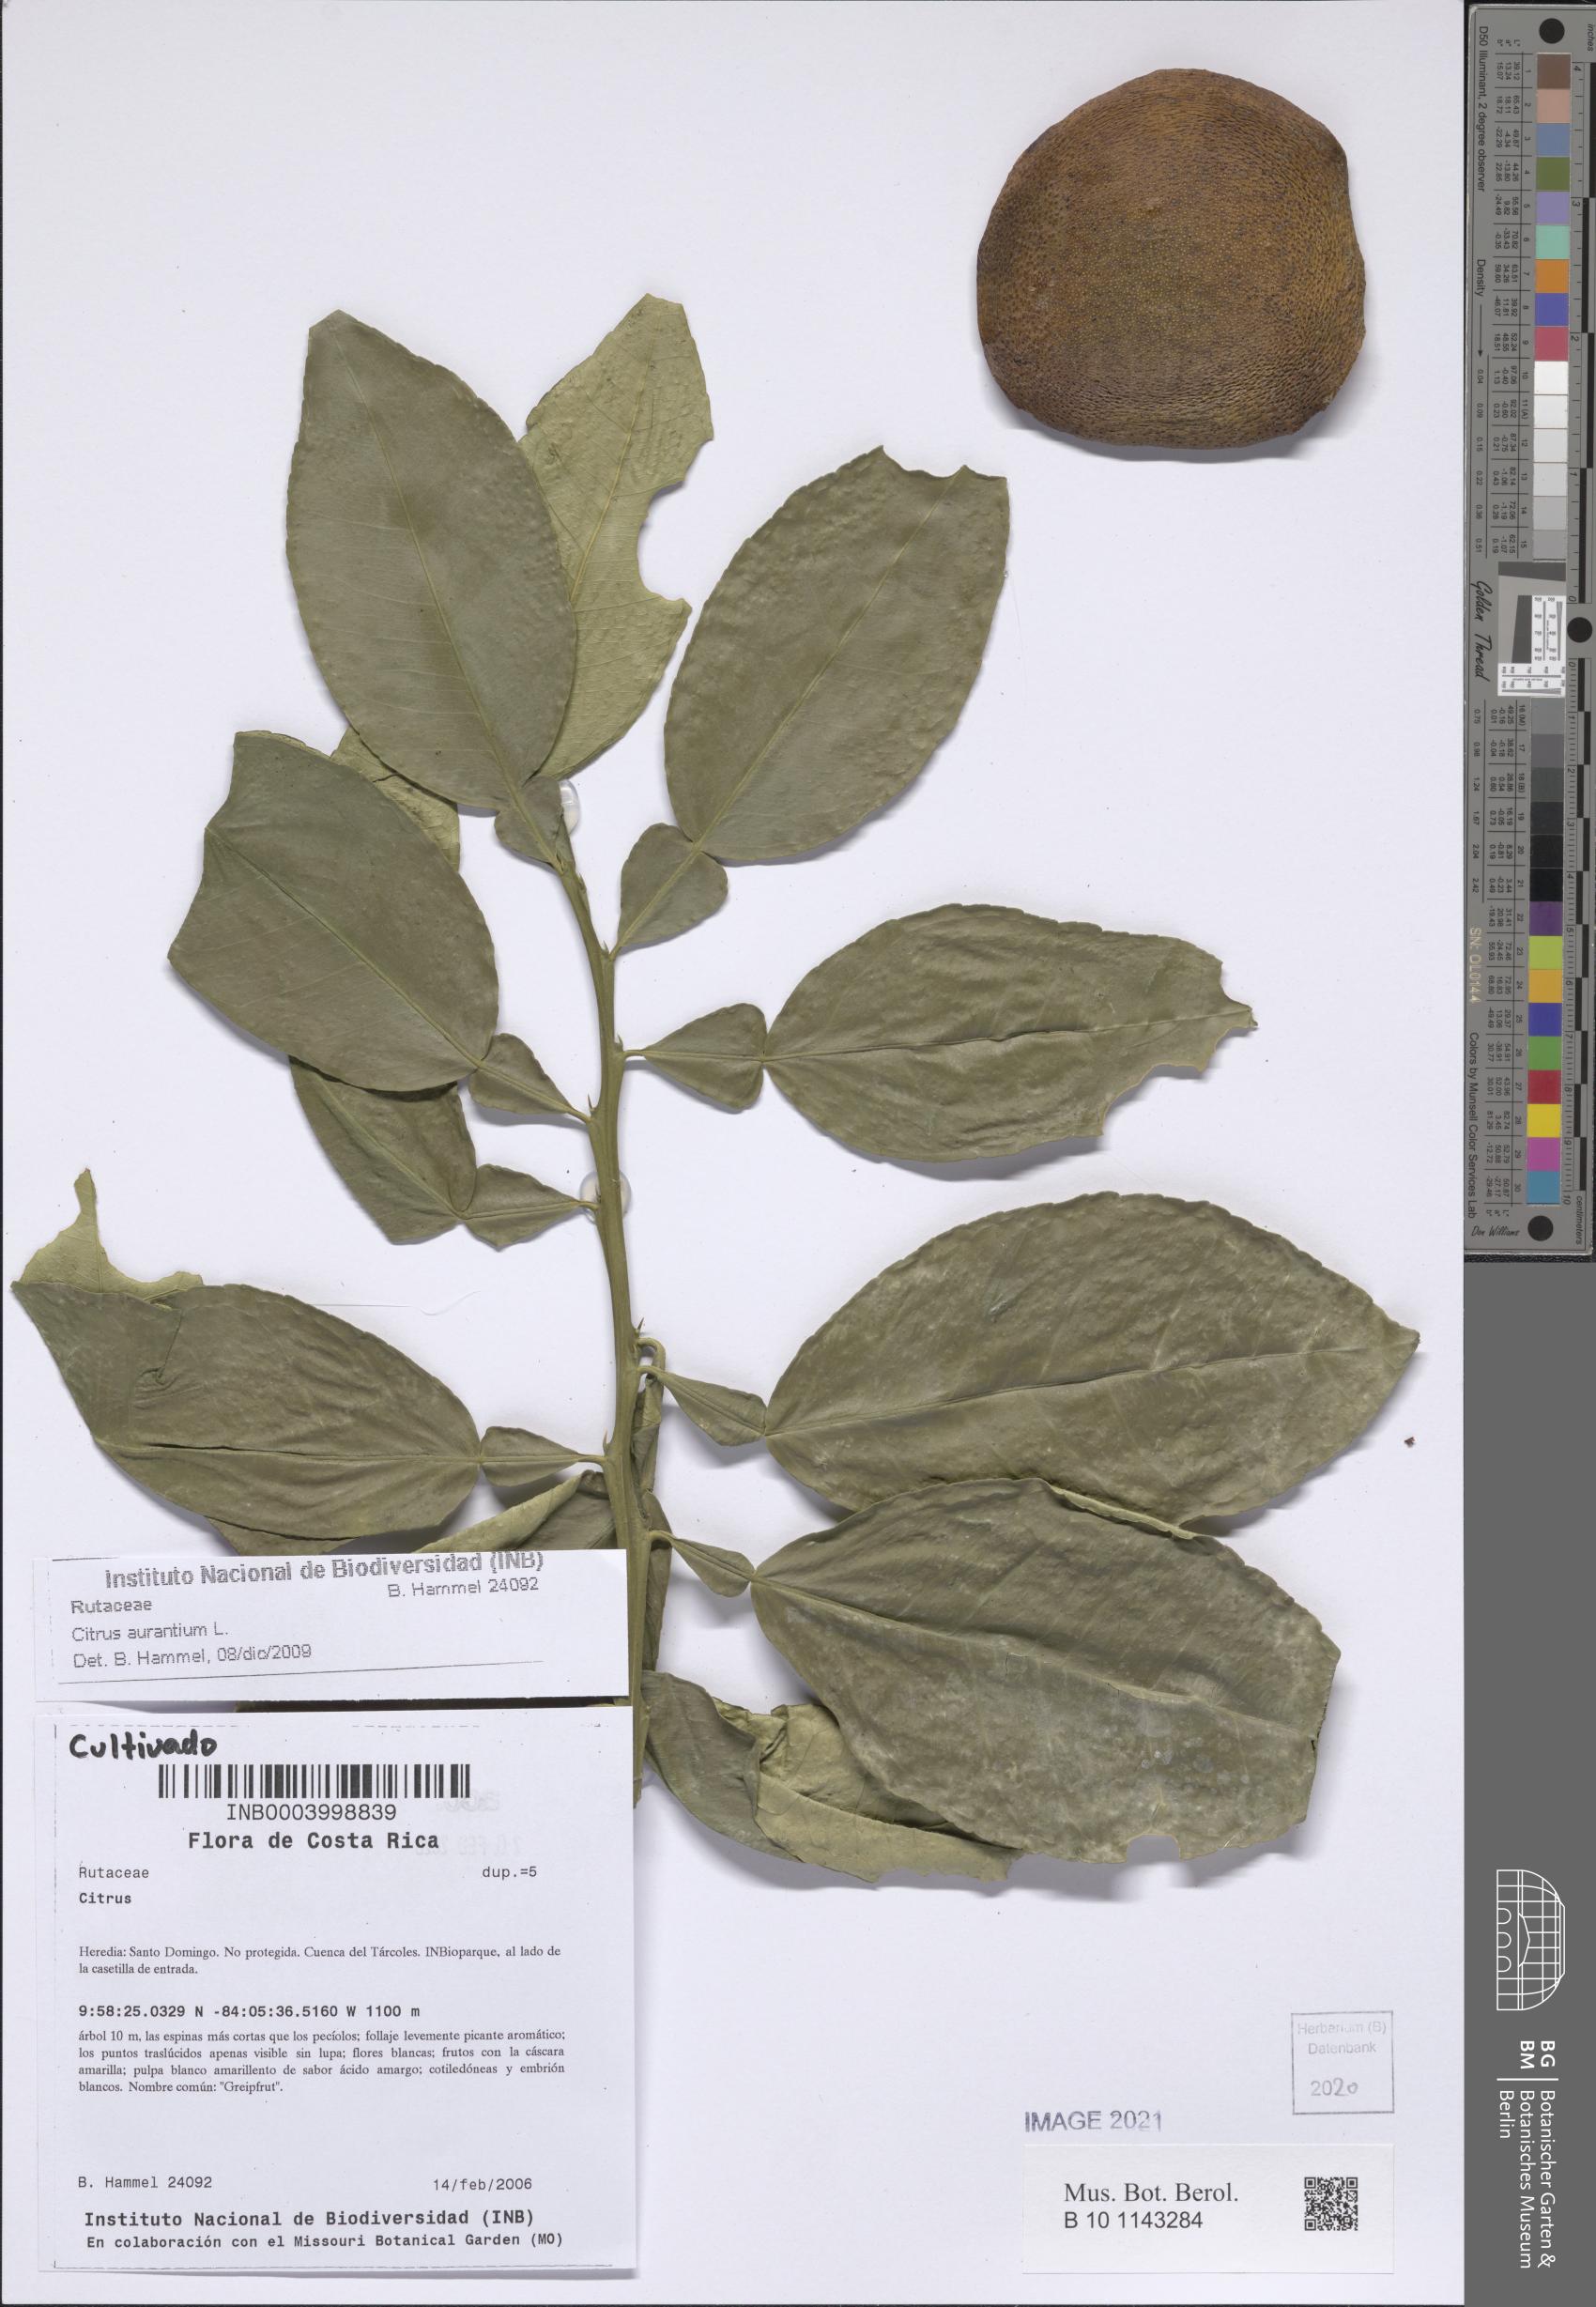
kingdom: Plantae
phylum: Tracheophyta
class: Magnoliopsida
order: Sapindales
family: Rutaceae
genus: Citrus
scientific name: Citrus aurantium
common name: Sour orange
